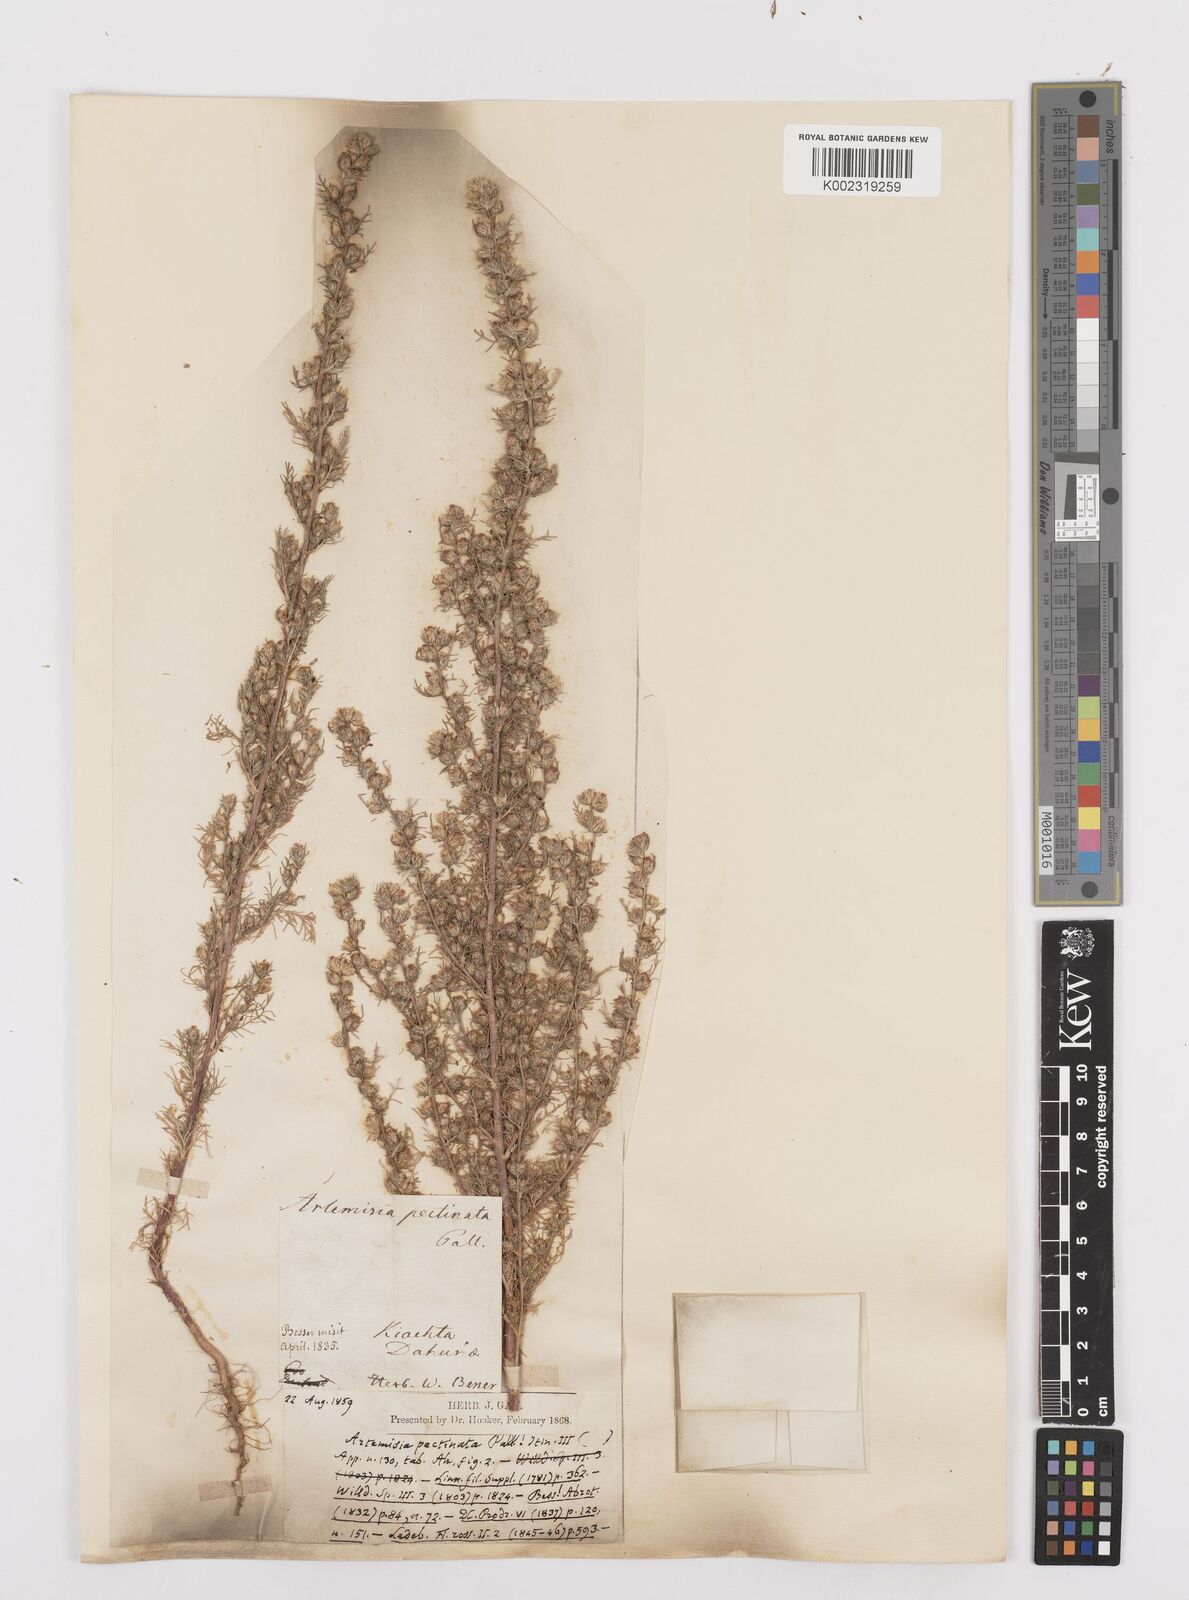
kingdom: Plantae
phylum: Tracheophyta
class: Magnoliopsida
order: Asterales
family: Asteraceae
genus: Neopallasia
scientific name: Neopallasia pectinata
